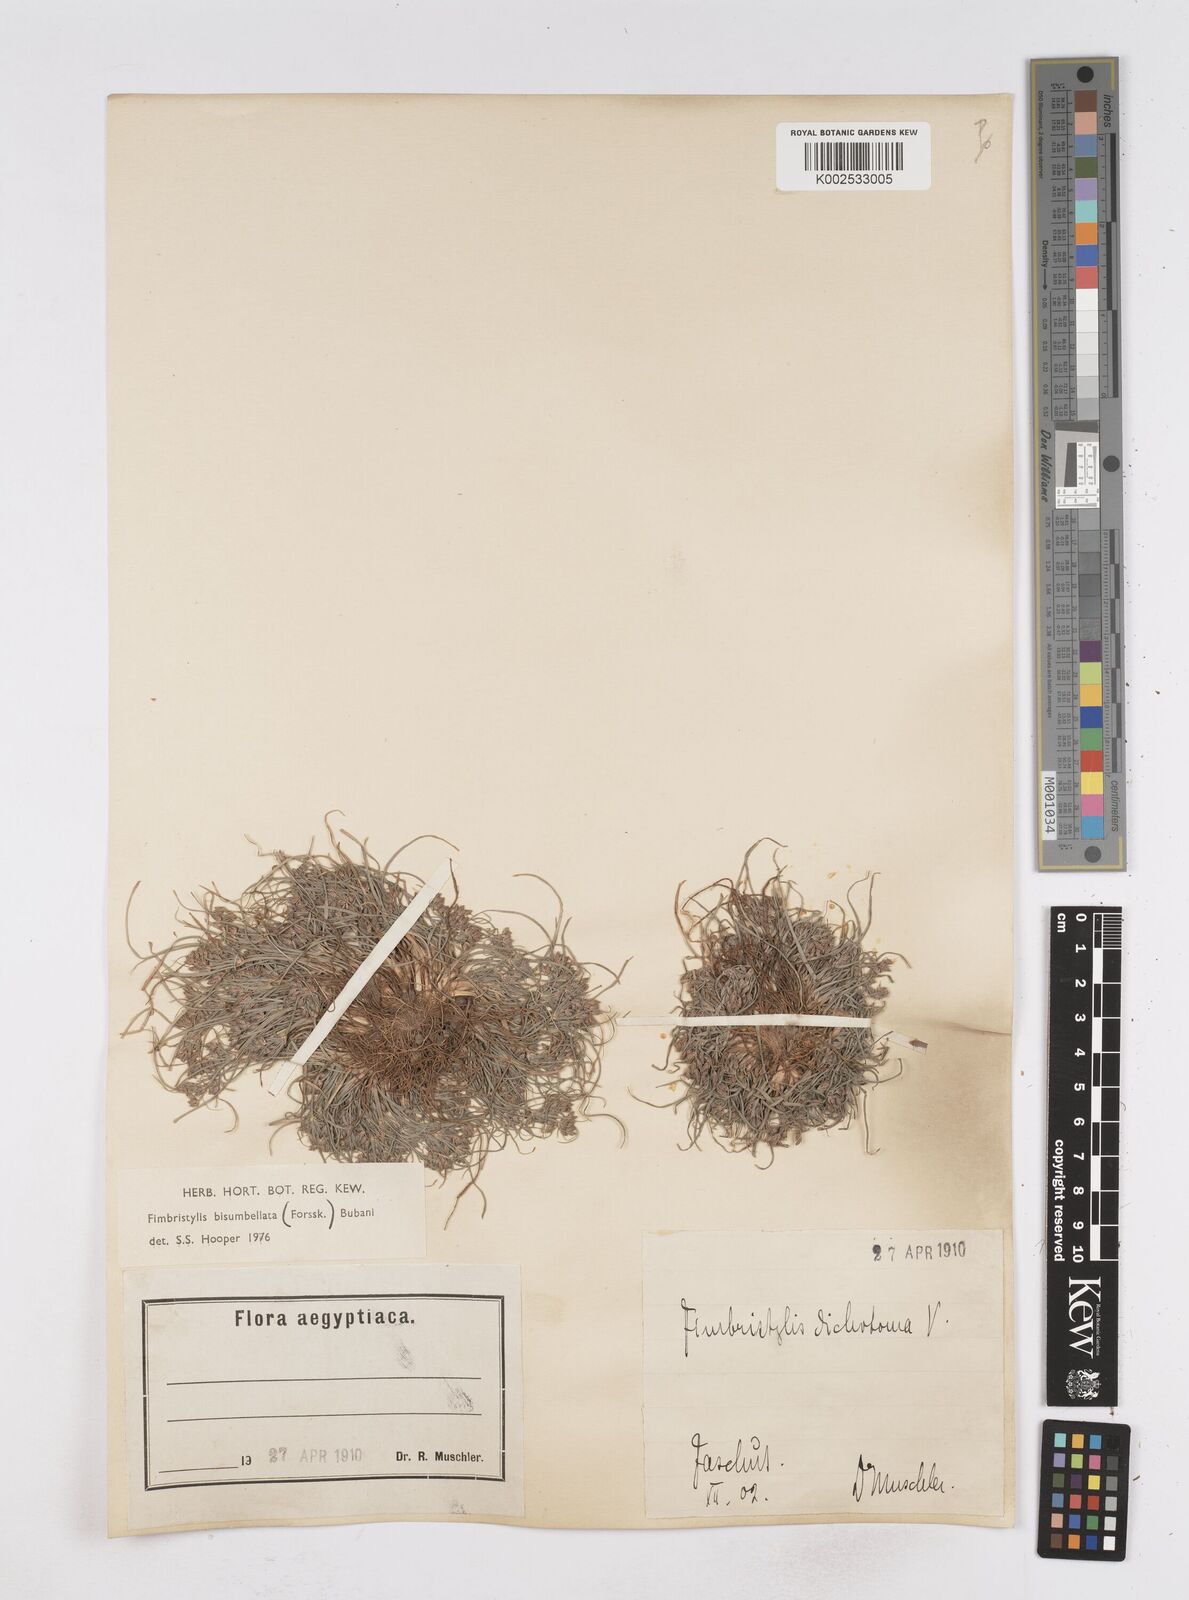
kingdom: Plantae
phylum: Tracheophyta
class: Liliopsida
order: Poales
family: Cyperaceae
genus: Fimbristylis
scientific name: Fimbristylis bisumbellata
